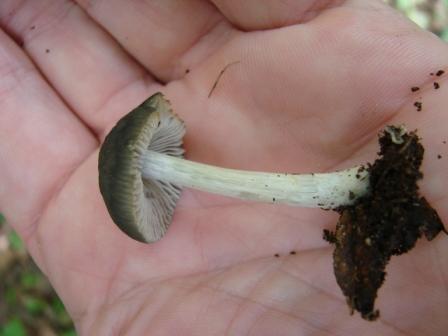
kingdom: Fungi
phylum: Basidiomycota
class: Agaricomycetes
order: Agaricales
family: Pluteaceae
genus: Pluteus
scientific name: Pluteus
